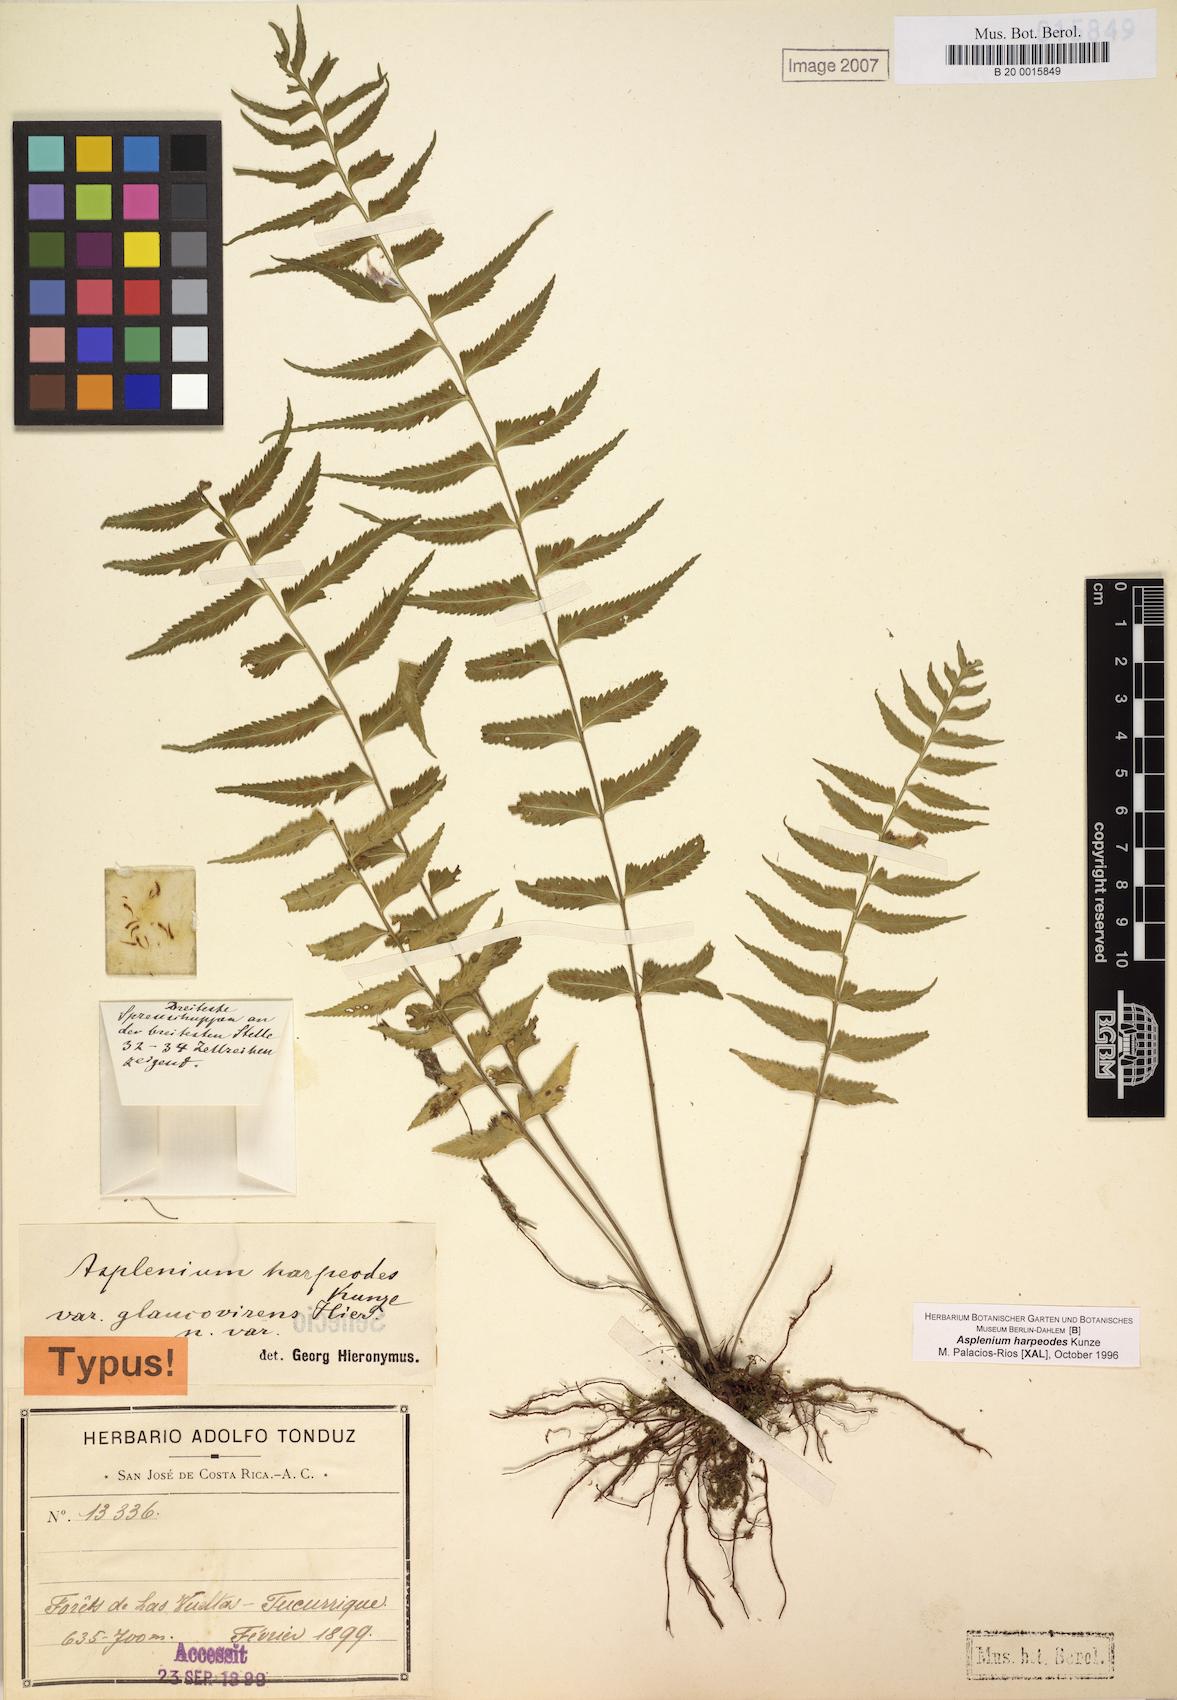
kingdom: Plantae
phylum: Tracheophyta
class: Polypodiopsida
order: Polypodiales
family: Aspleniaceae
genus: Asplenium
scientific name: Asplenium pululahuae
